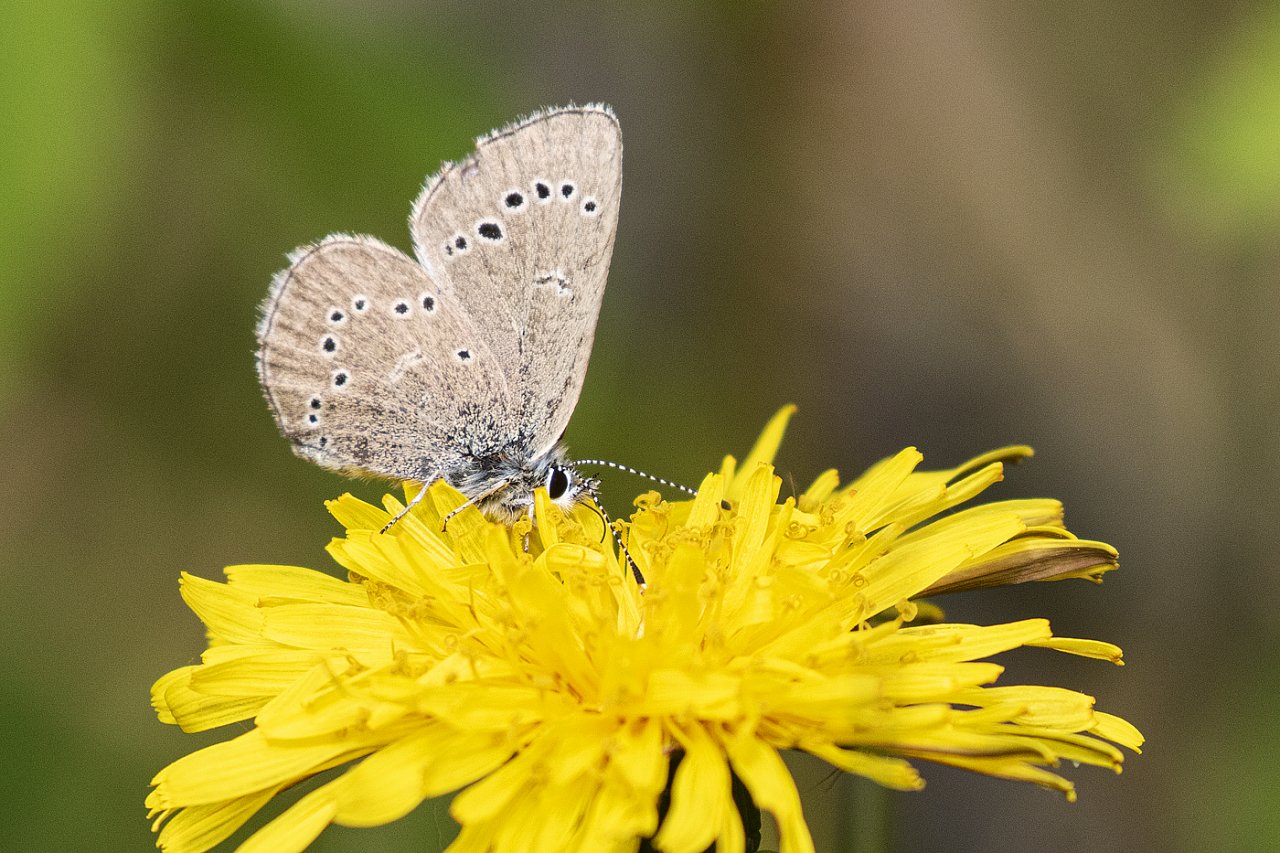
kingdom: Animalia
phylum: Arthropoda
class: Insecta
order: Lepidoptera
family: Lycaenidae
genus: Glaucopsyche
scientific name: Glaucopsyche lygdamus
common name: Silvery Blue
